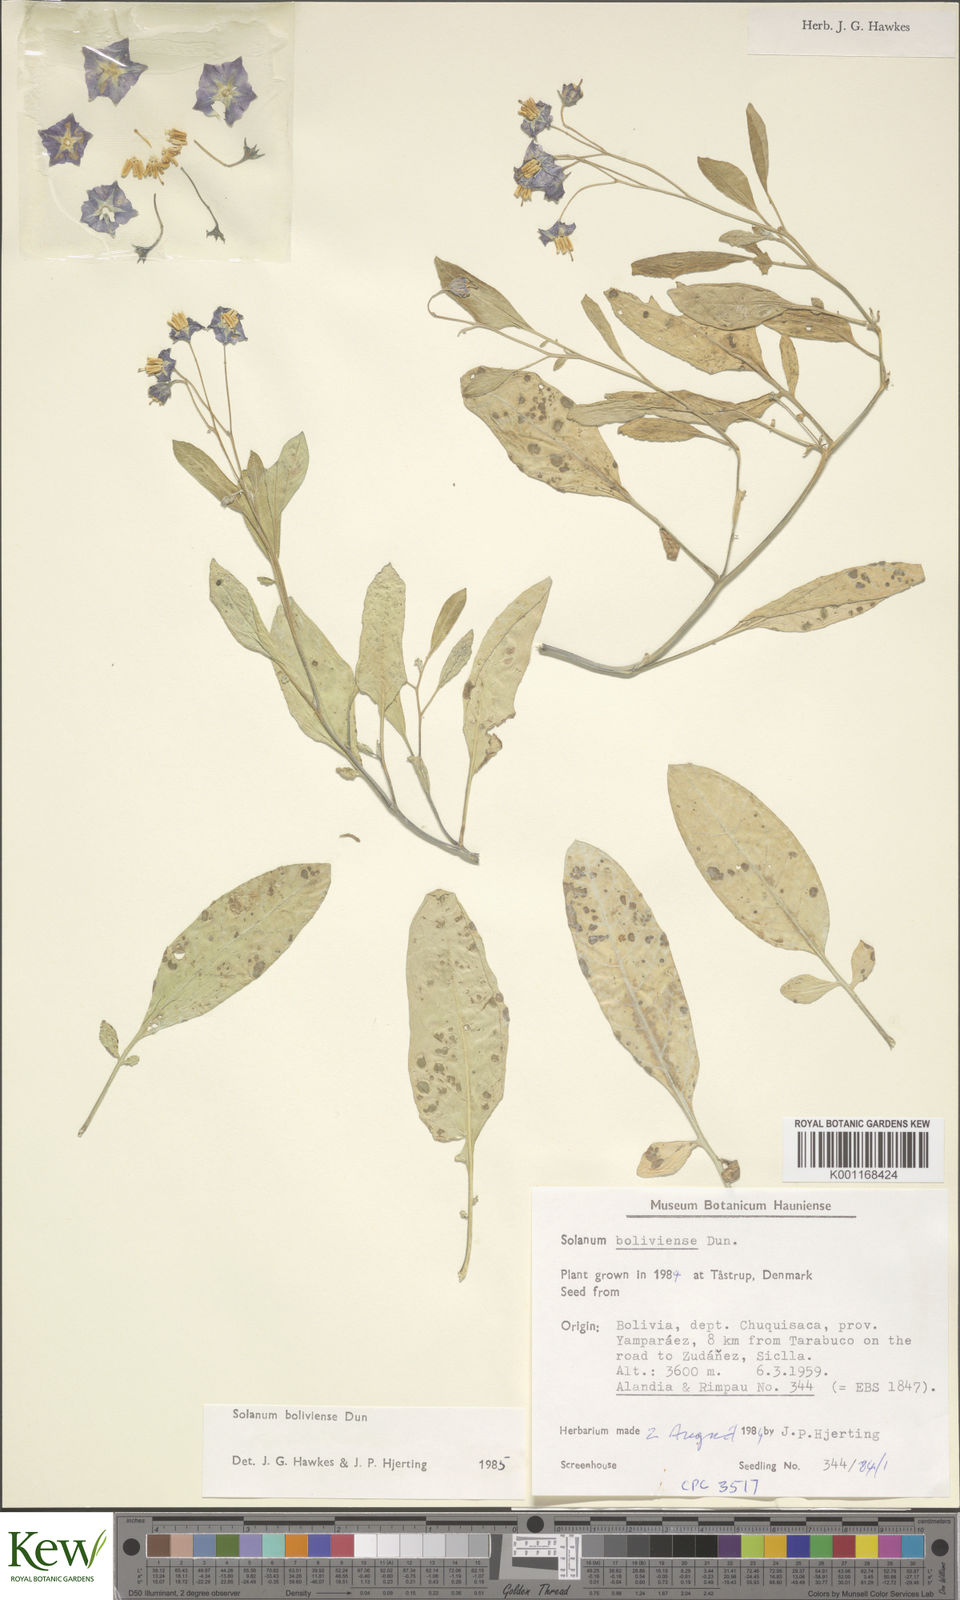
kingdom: Plantae
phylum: Tracheophyta
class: Magnoliopsida
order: Solanales
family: Solanaceae
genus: Solanum
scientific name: Solanum boliviense
